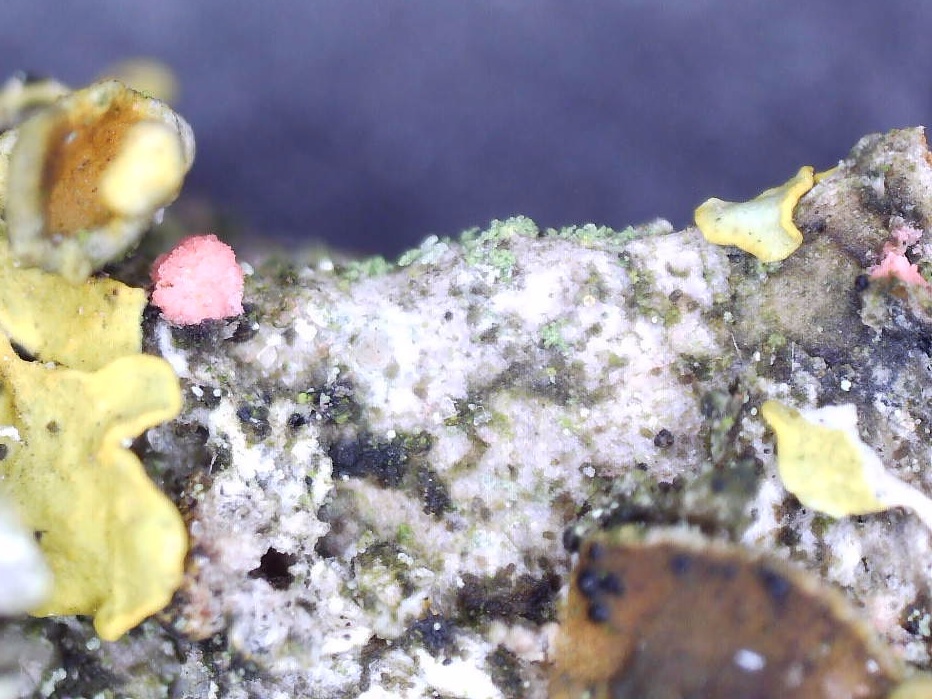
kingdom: Fungi
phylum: Ascomycota
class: Sordariomycetes
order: Hypocreales
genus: Illosporiopsis
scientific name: Illosporiopsis christiansenii
